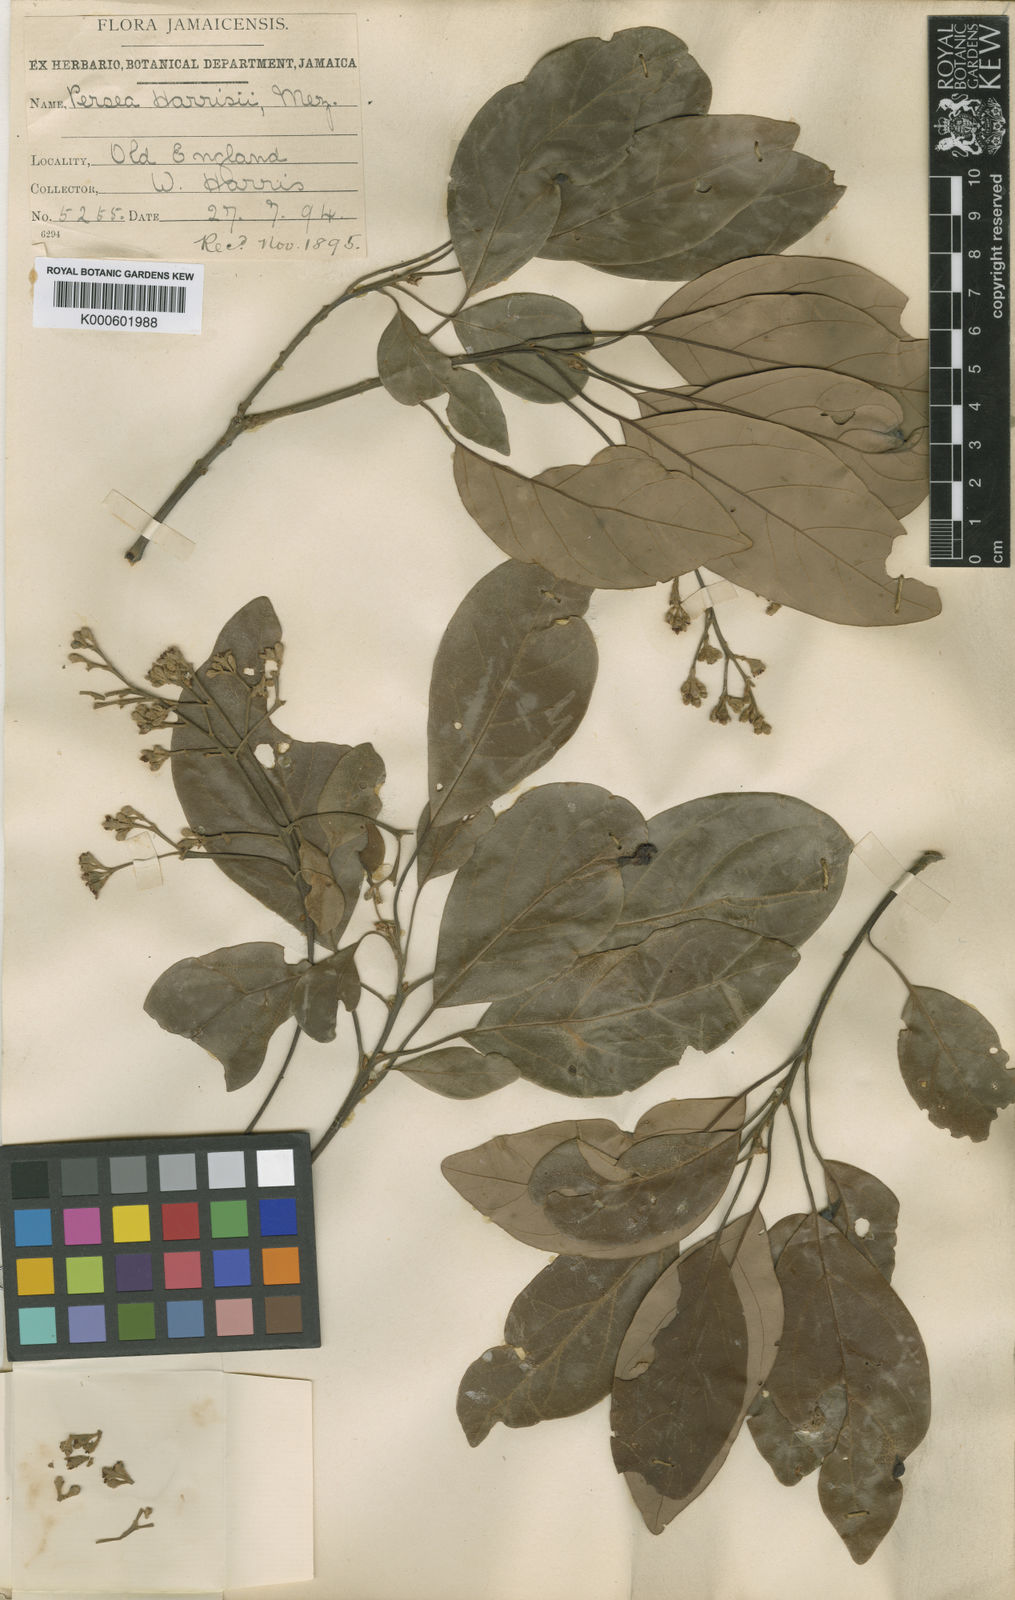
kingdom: Plantae
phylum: Tracheophyta
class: Magnoliopsida
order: Laurales
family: Lauraceae
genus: Persea
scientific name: Persea alpigena
